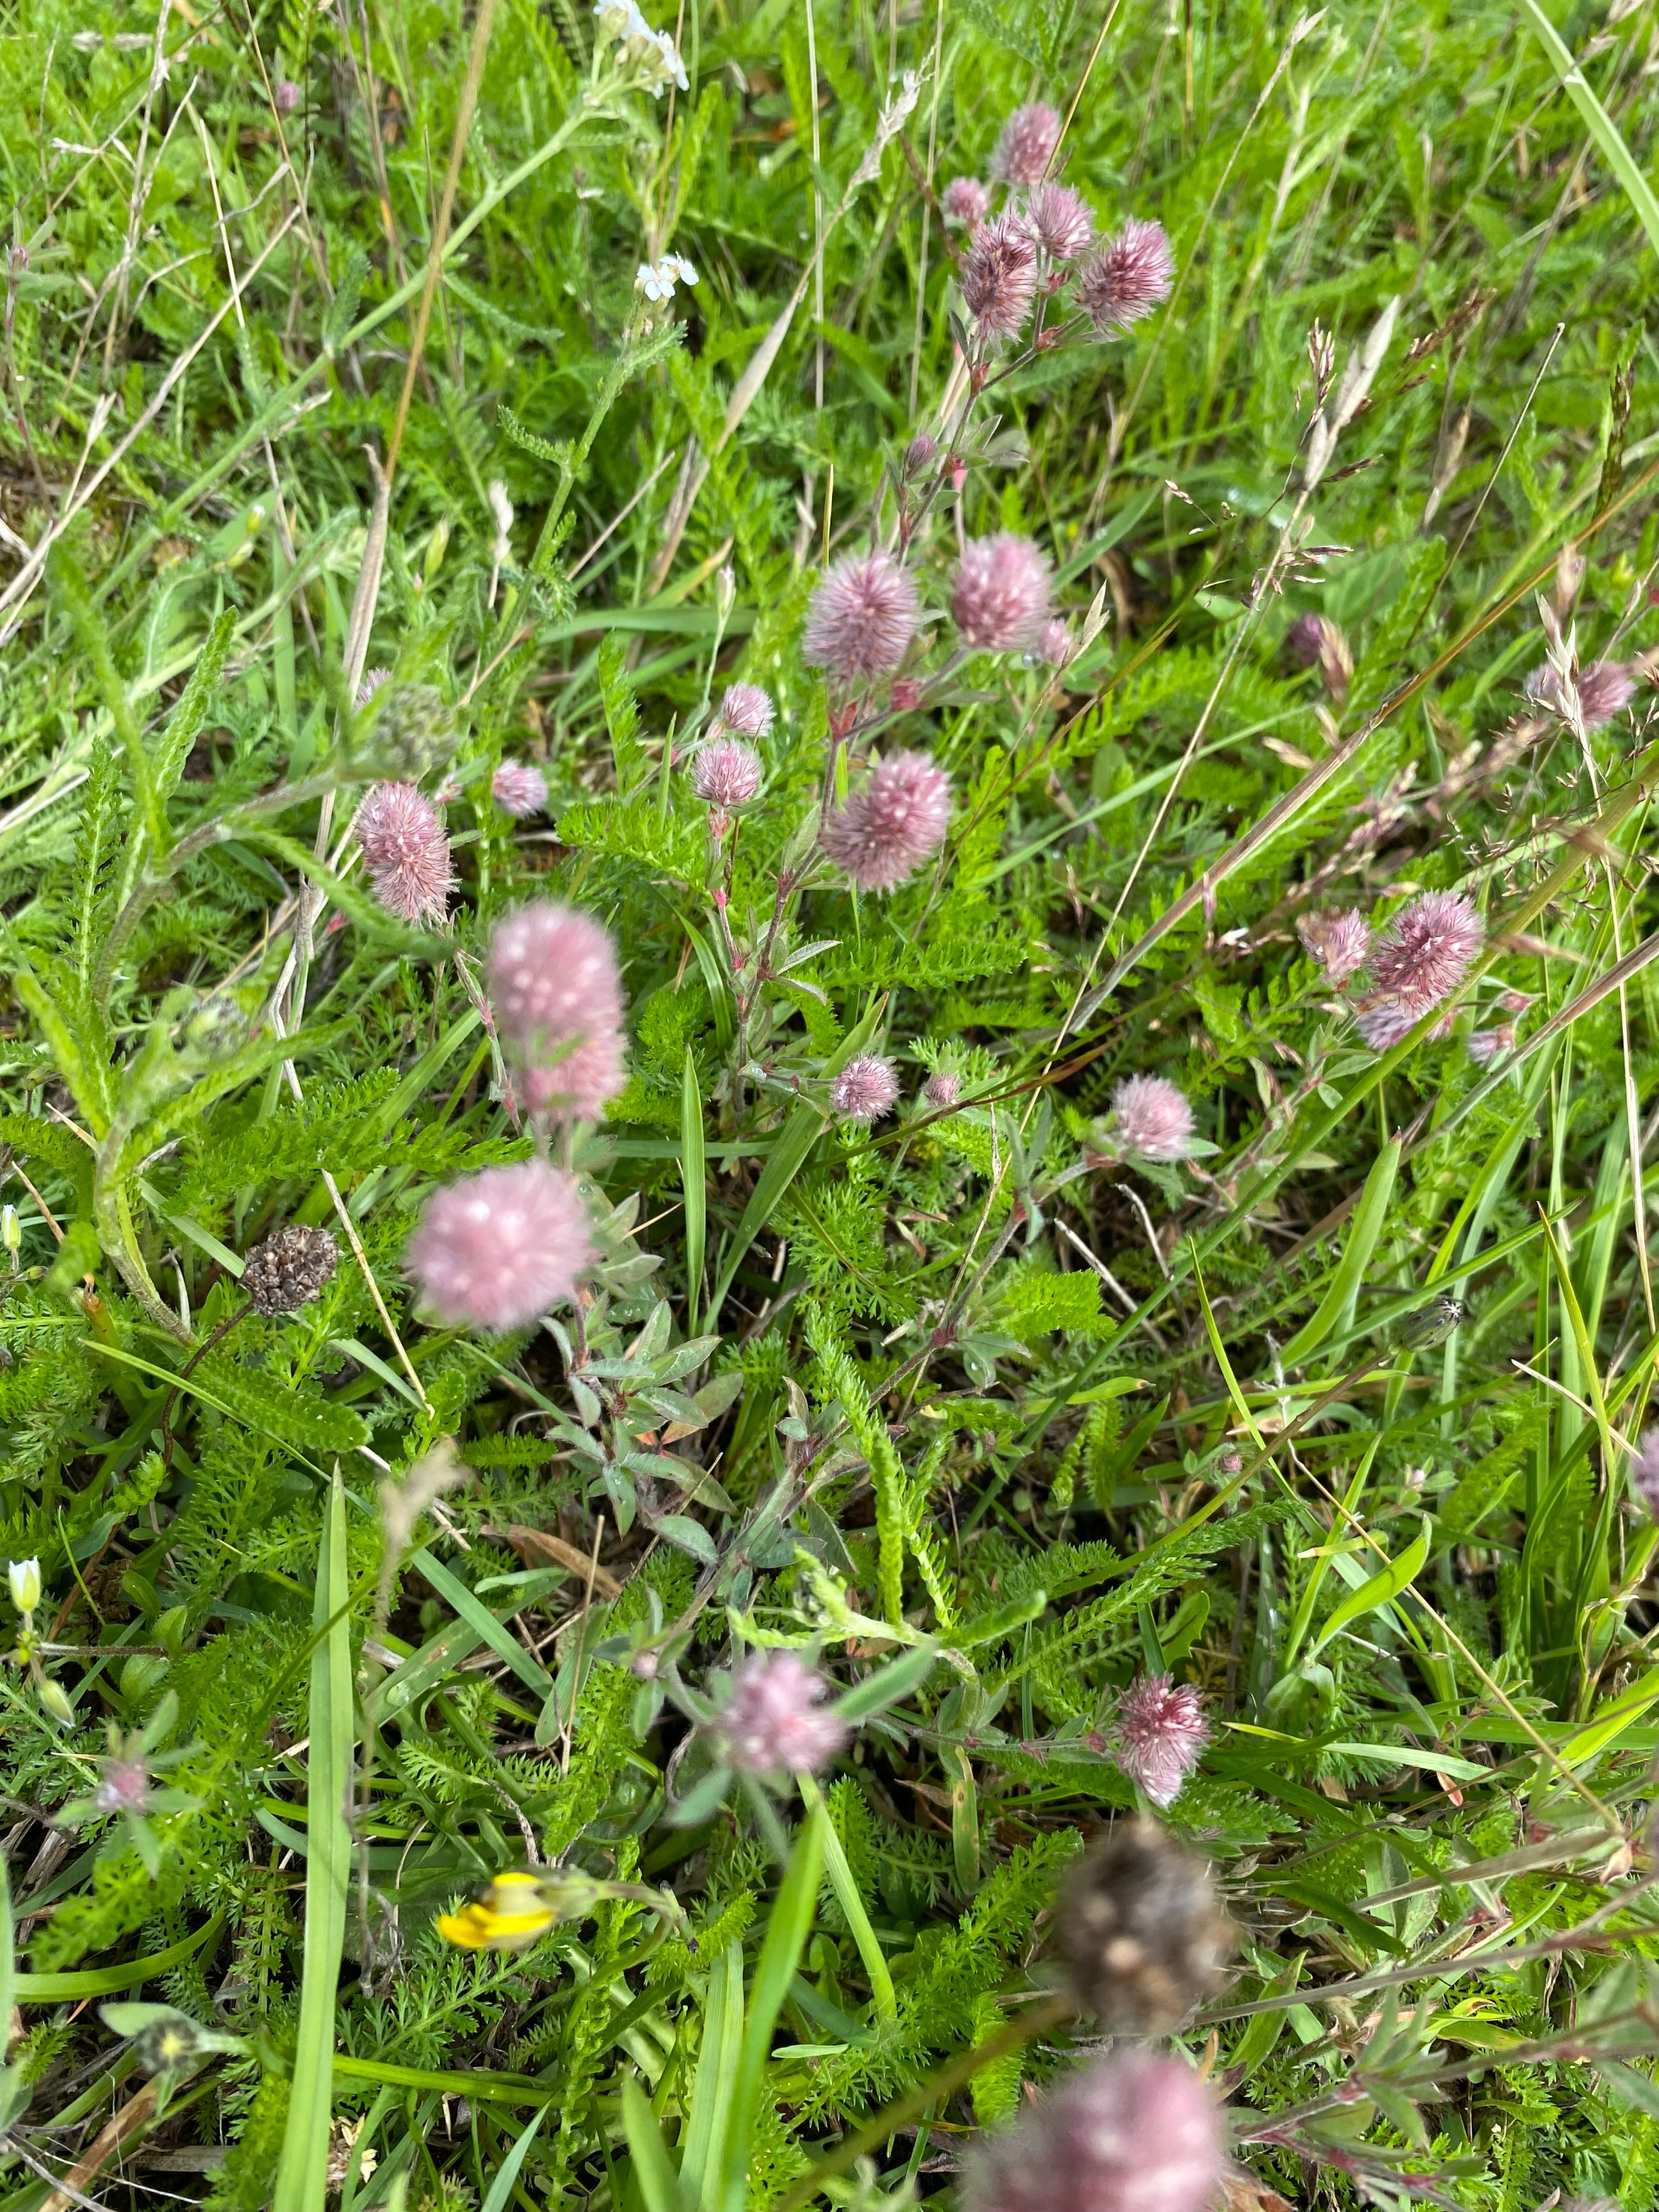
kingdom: Plantae
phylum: Tracheophyta
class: Magnoliopsida
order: Fabales
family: Fabaceae
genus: Trifolium
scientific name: Trifolium arvense
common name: Hare-kløver
